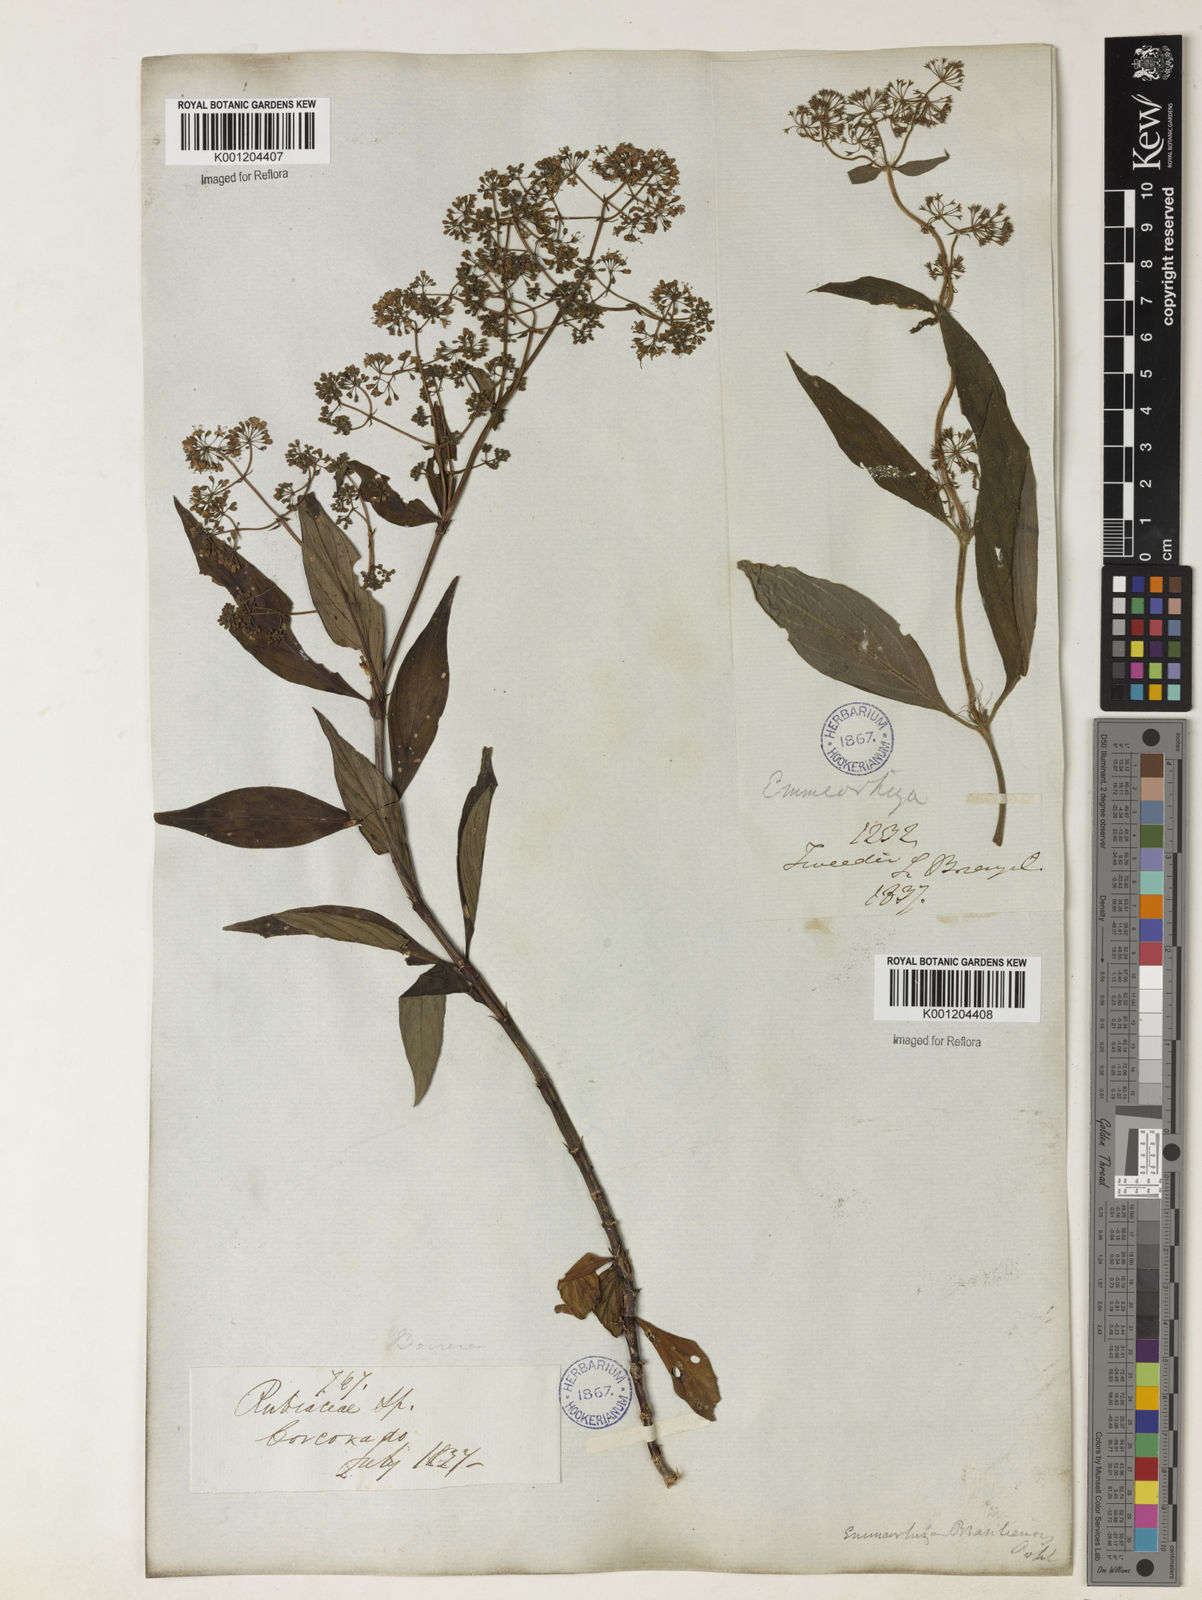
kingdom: Plantae
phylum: Tracheophyta
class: Magnoliopsida
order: Gentianales
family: Rubiaceae
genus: Emmeorhiza
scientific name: Emmeorhiza
